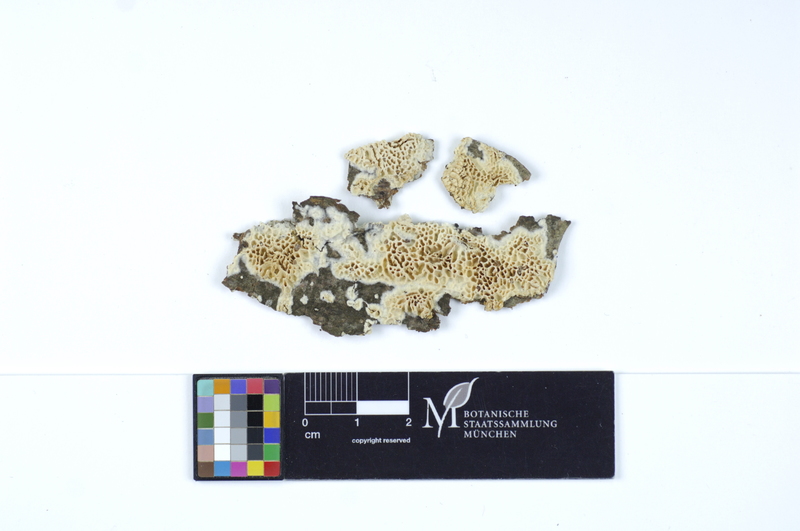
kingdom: Plantae
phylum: Tracheophyta
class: Magnoliopsida
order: Fagales
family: Fagaceae
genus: Fagus
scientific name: Fagus sylvatica
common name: Beech
